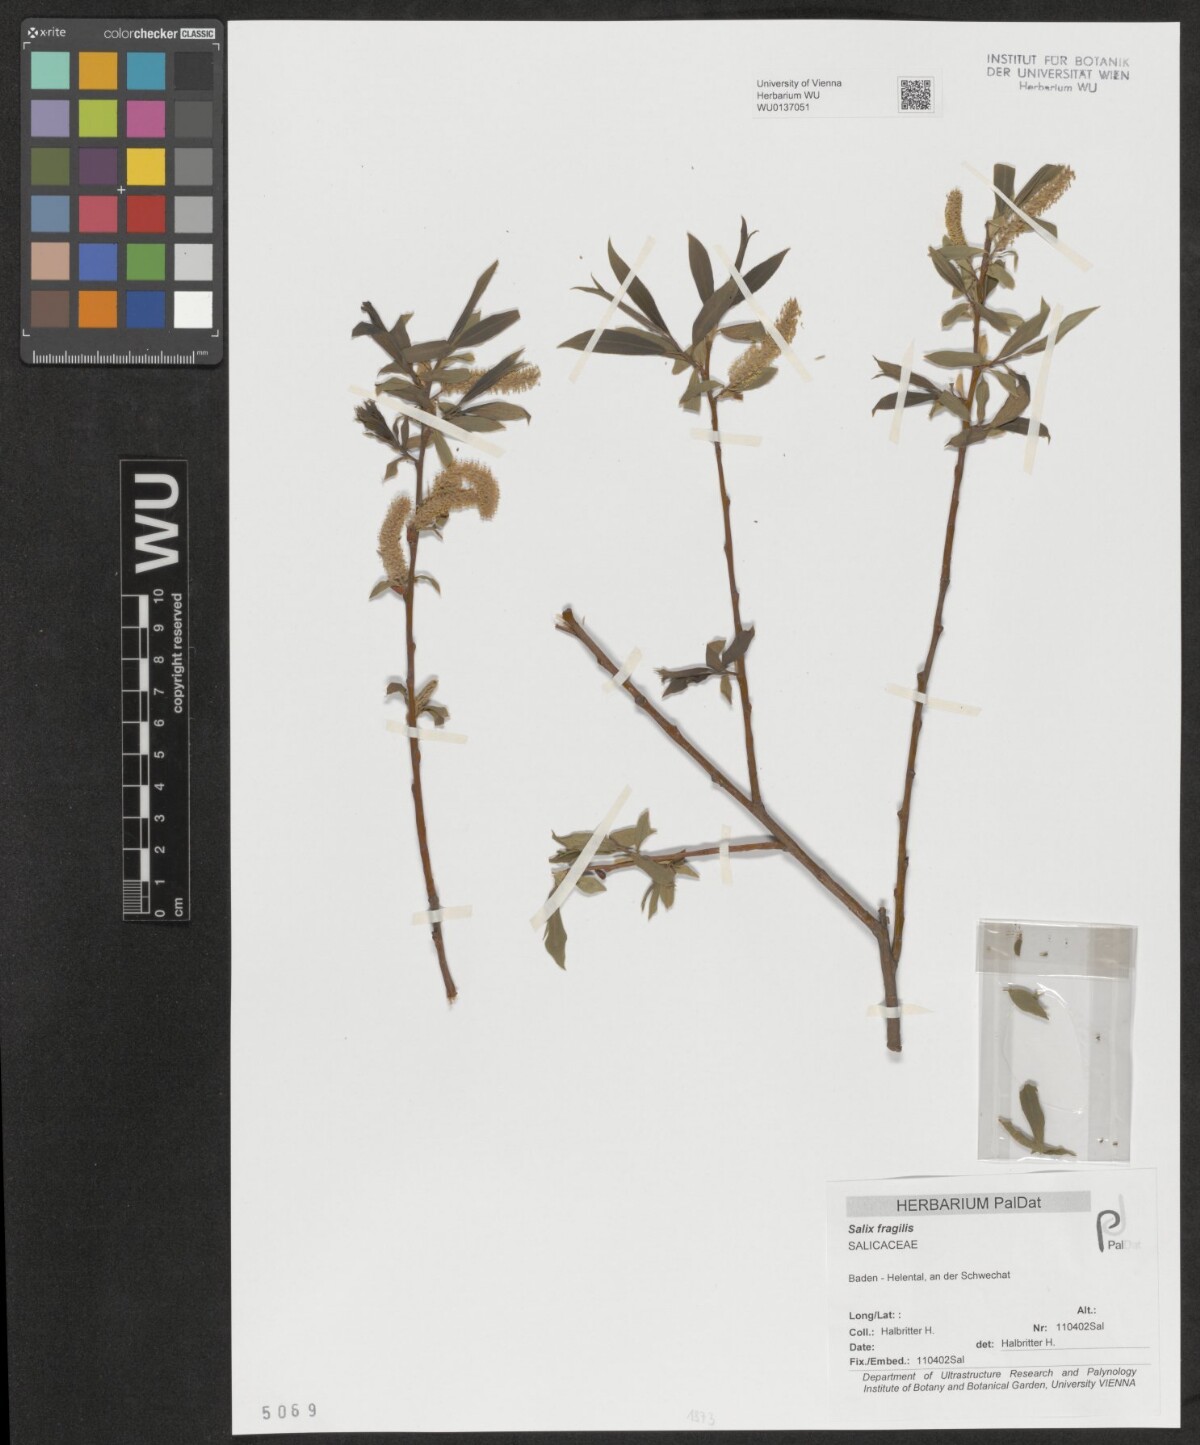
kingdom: Plantae
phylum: Tracheophyta
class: Magnoliopsida
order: Malpighiales
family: Salicaceae
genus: Salix
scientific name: Salix fragilis
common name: Crack willow
